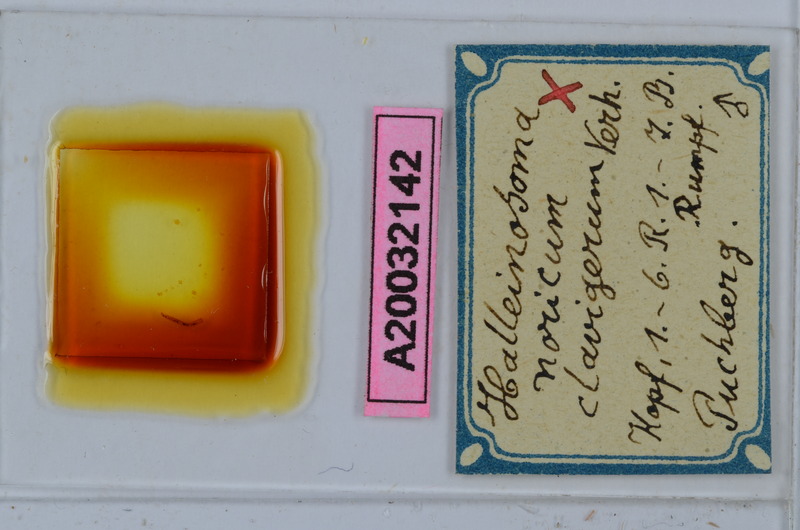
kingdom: Animalia
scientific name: Animalia
